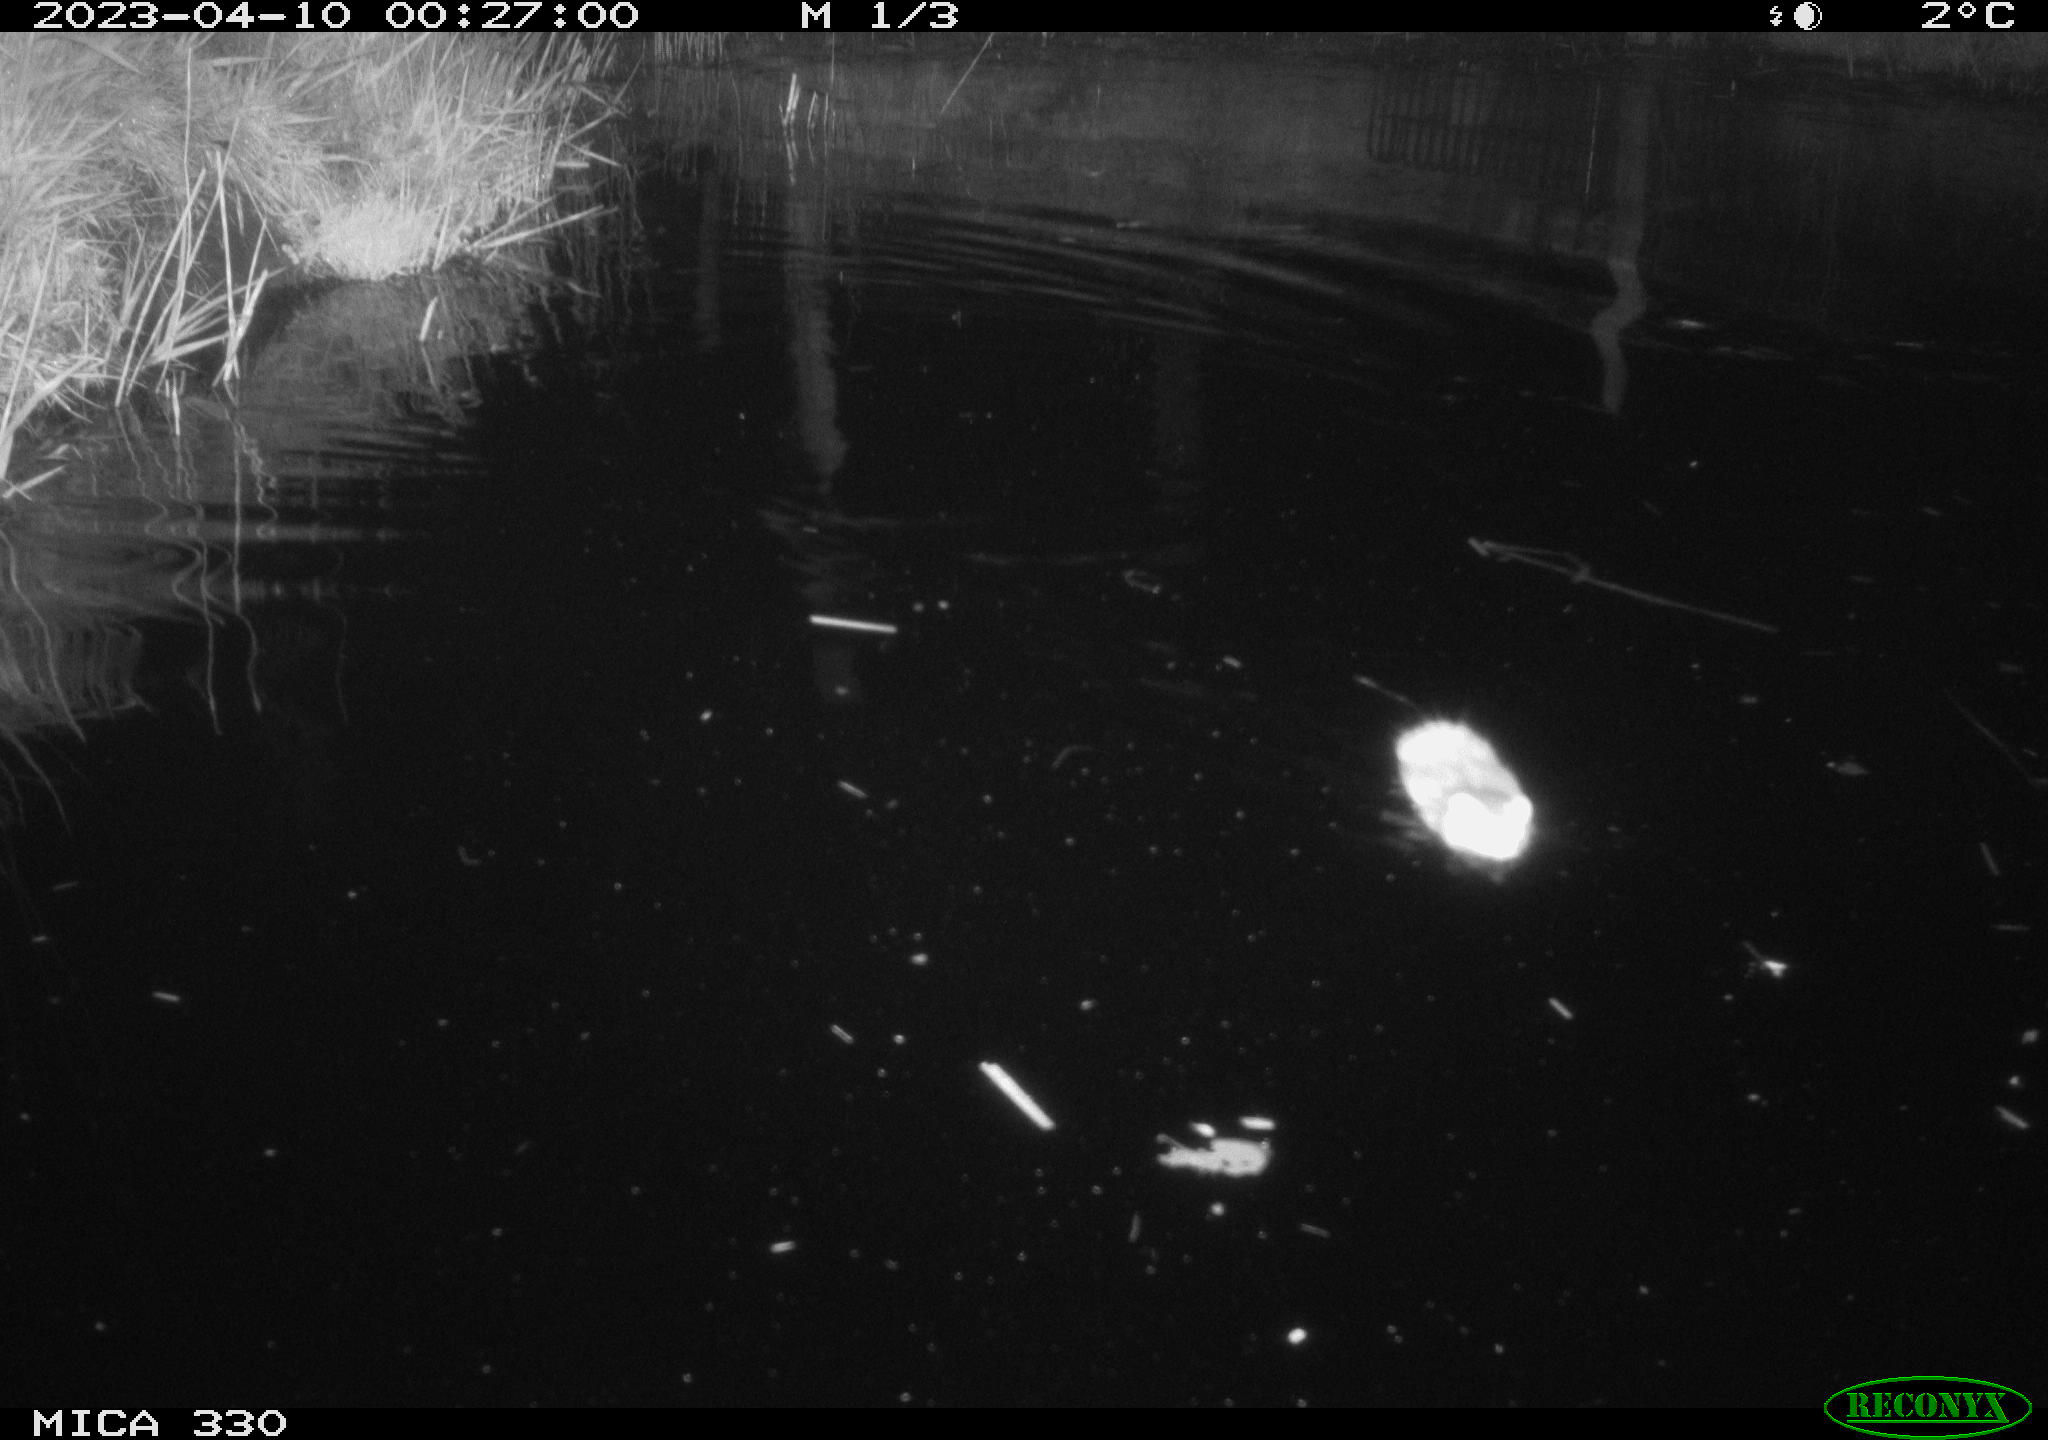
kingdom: Animalia
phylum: Chordata
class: Mammalia
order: Rodentia
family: Cricetidae
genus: Ondatra
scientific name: Ondatra zibethicus
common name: Muskrat
